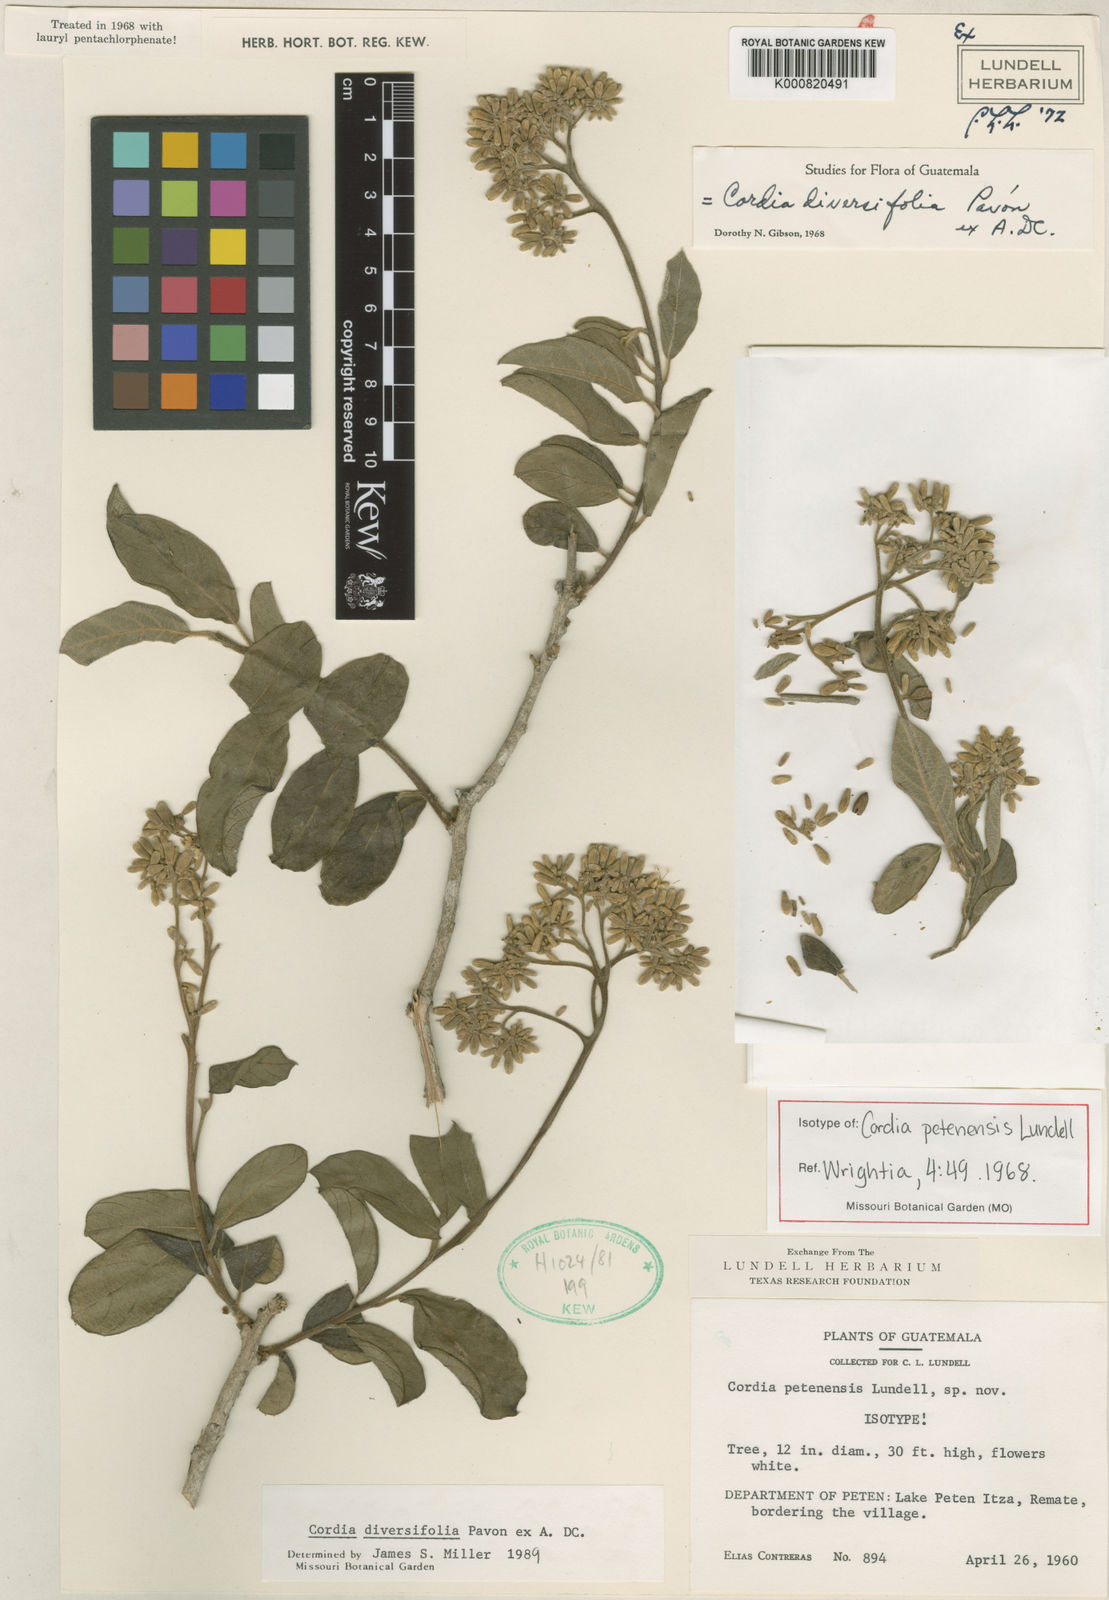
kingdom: Plantae
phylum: Tracheophyta
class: Magnoliopsida
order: Boraginales
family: Cordiaceae
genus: Cordia
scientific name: Cordia diversifolia
